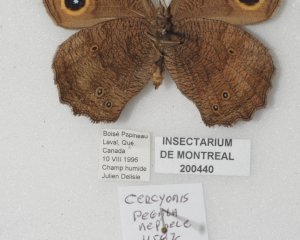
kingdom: Animalia
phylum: Arthropoda
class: Insecta
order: Lepidoptera
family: Nymphalidae
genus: Cercyonis
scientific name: Cercyonis pegala
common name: Common Wood-Nymph
